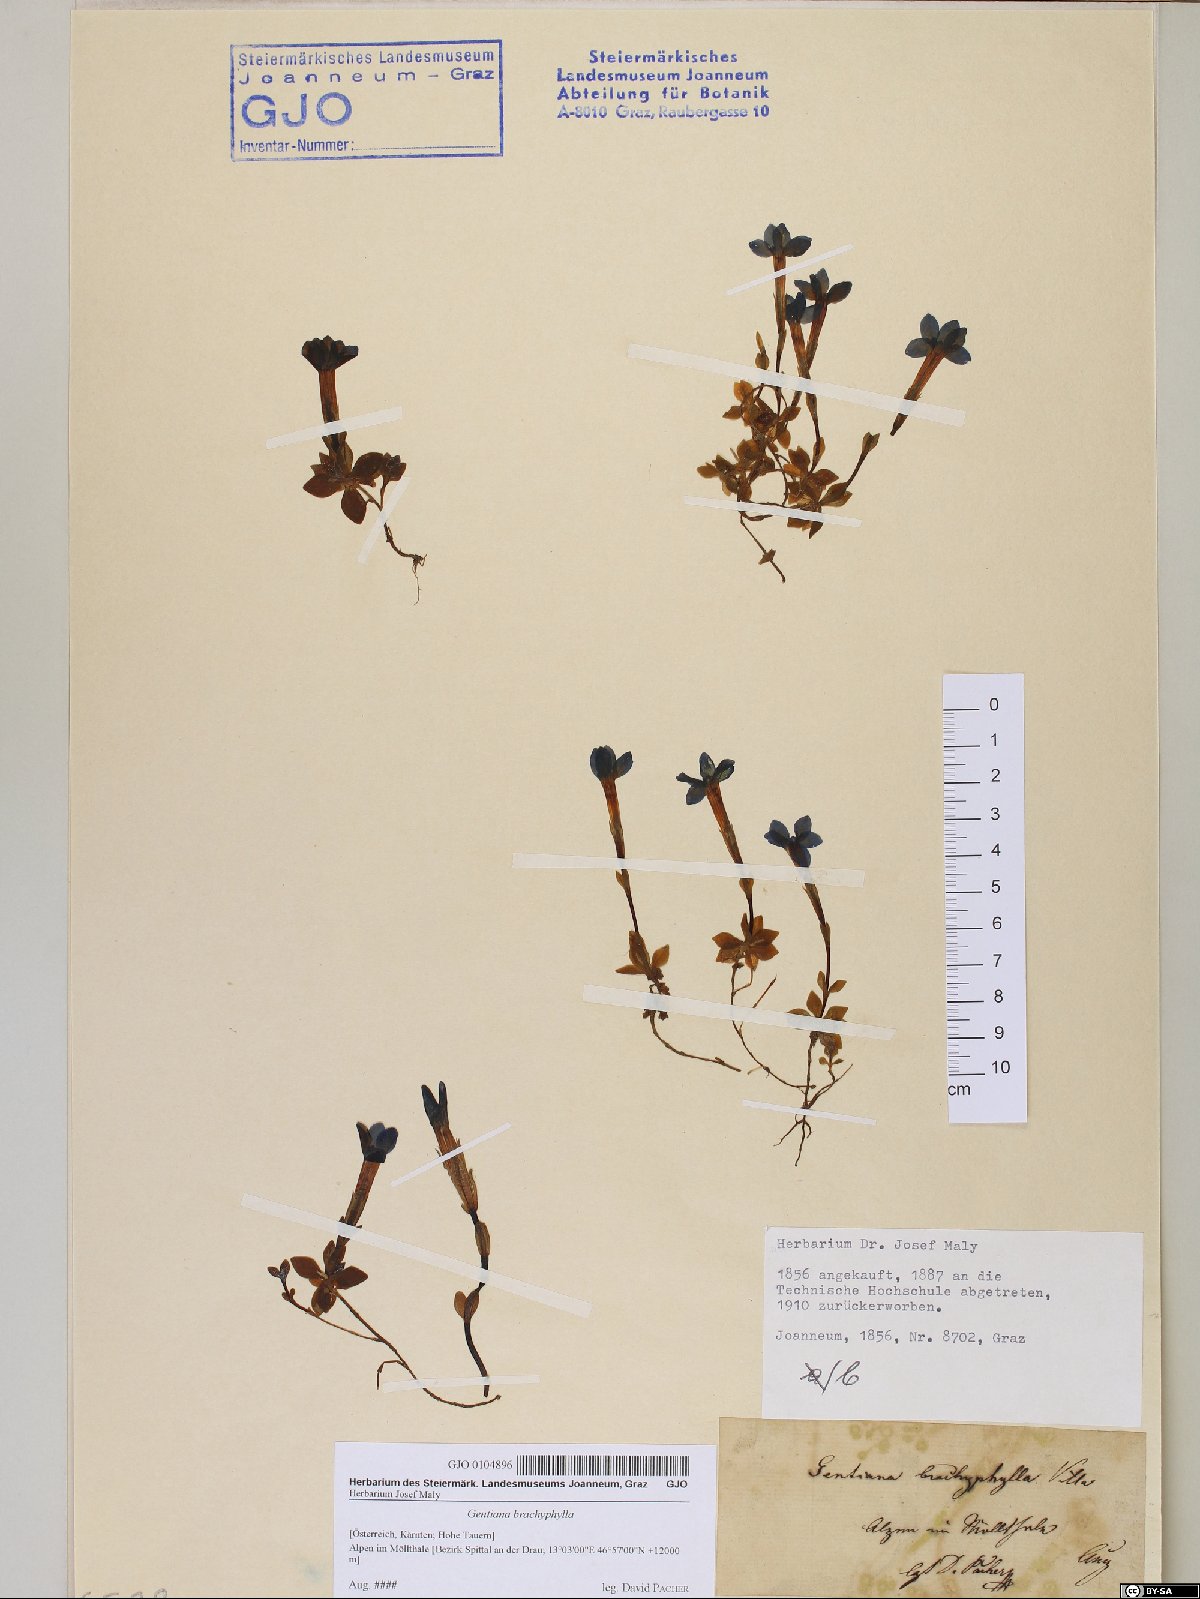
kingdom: Plantae
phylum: Tracheophyta
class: Magnoliopsida
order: Gentianales
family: Gentianaceae
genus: Gentiana
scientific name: Gentiana brachyphylla
